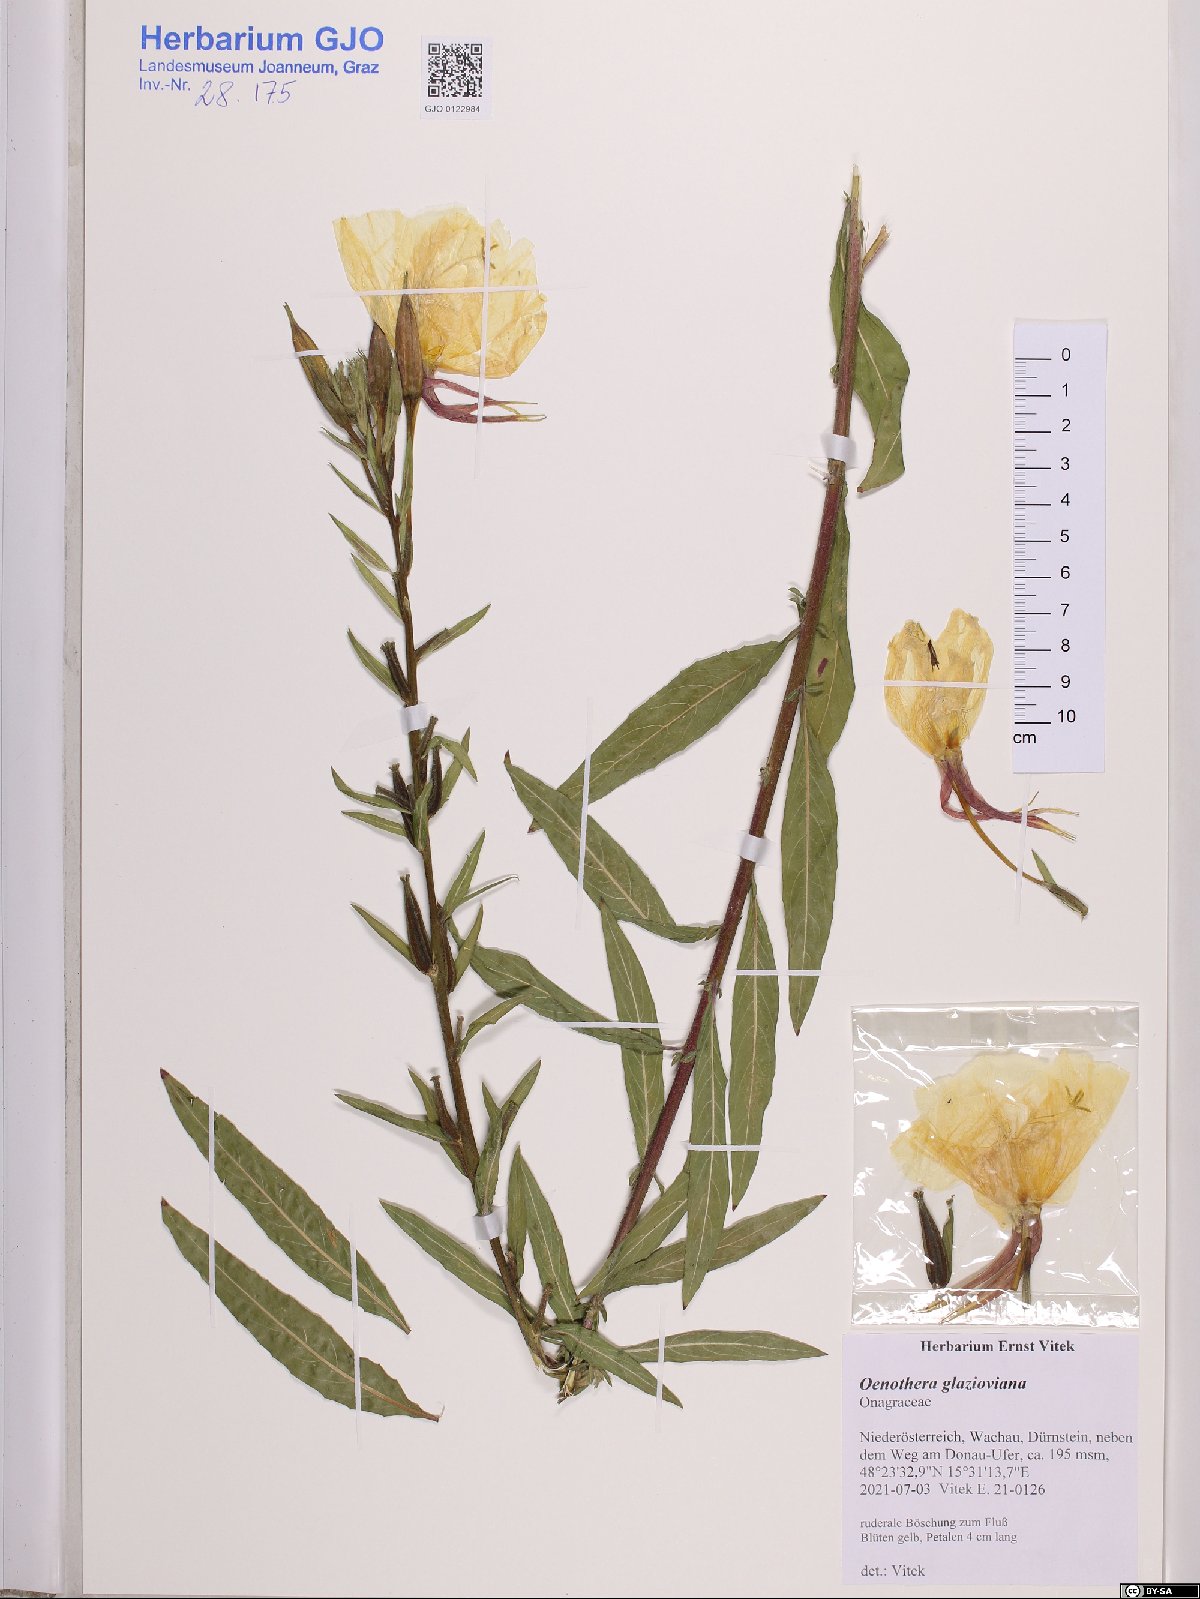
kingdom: Plantae
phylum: Tracheophyta
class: Magnoliopsida
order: Myrtales
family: Onagraceae
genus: Oenothera
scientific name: Oenothera glazioviana
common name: Large-flowered evening-primrose
